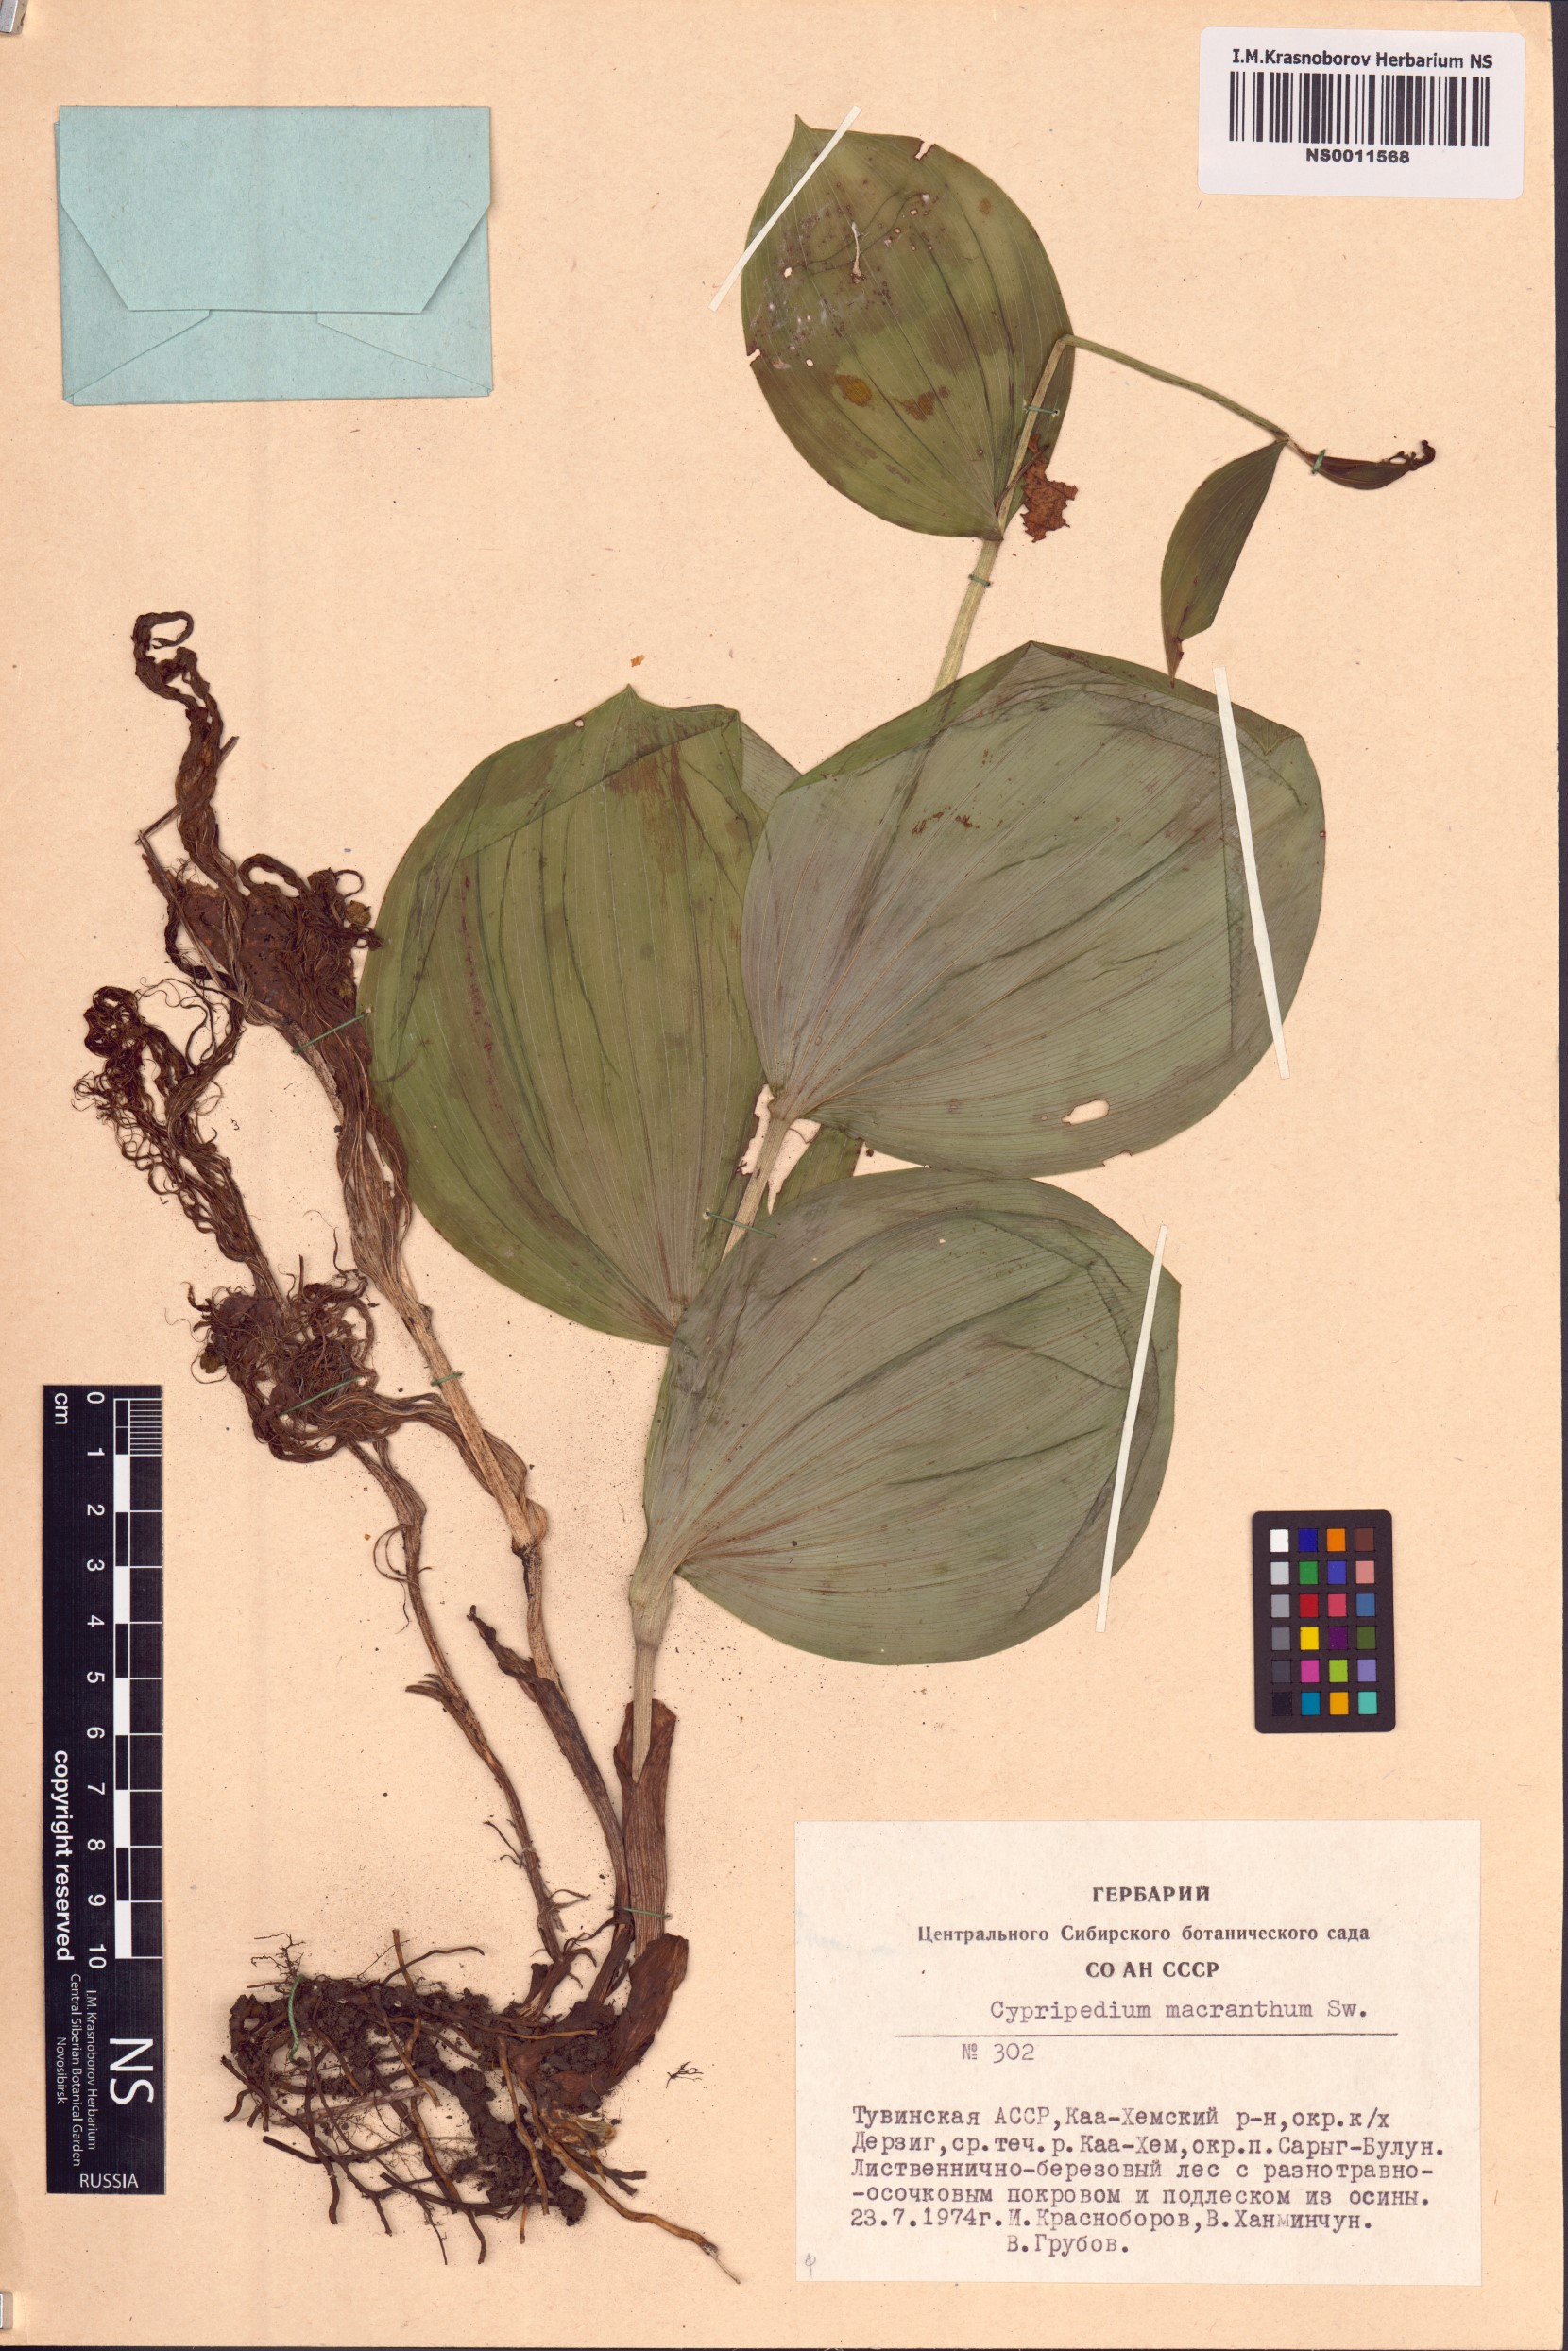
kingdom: Plantae
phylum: Tracheophyta
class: Liliopsida
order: Asparagales
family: Orchidaceae
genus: Cypripedium
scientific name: Cypripedium macranthos
